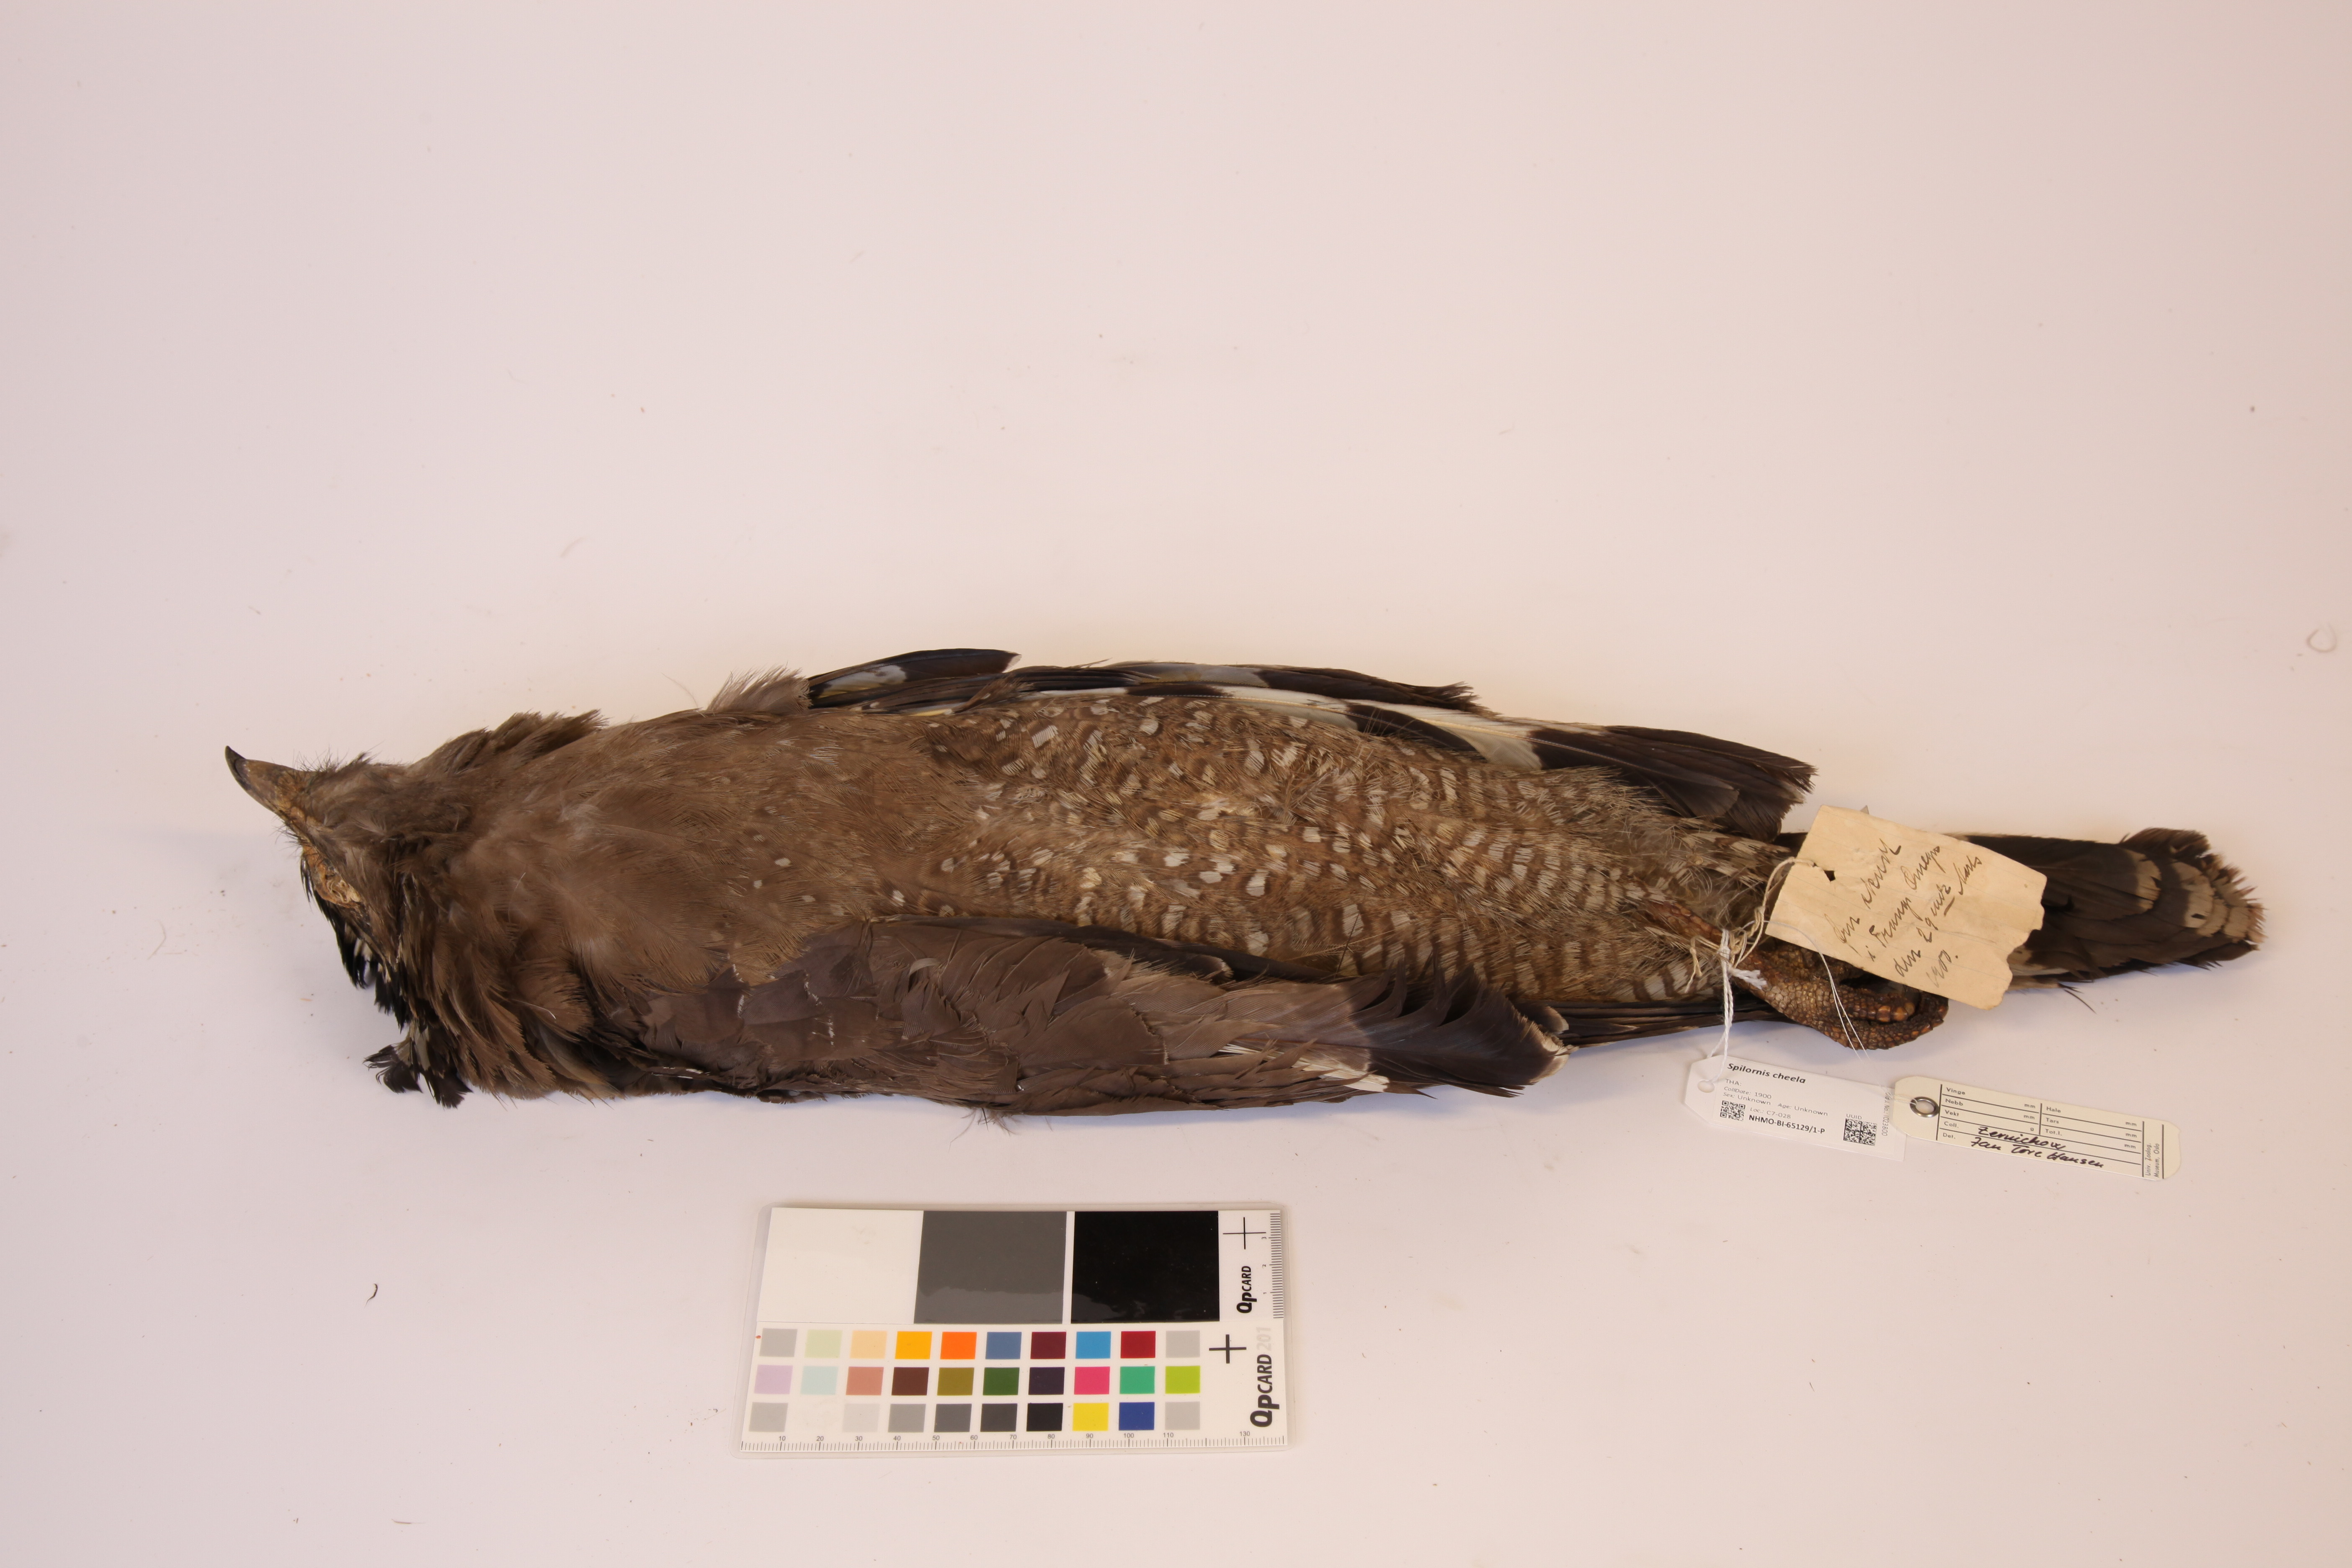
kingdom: Animalia
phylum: Chordata
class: Aves
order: Accipitriformes
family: Accipitridae
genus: Spilornis
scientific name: Spilornis cheela
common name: Crested serpent eagle
